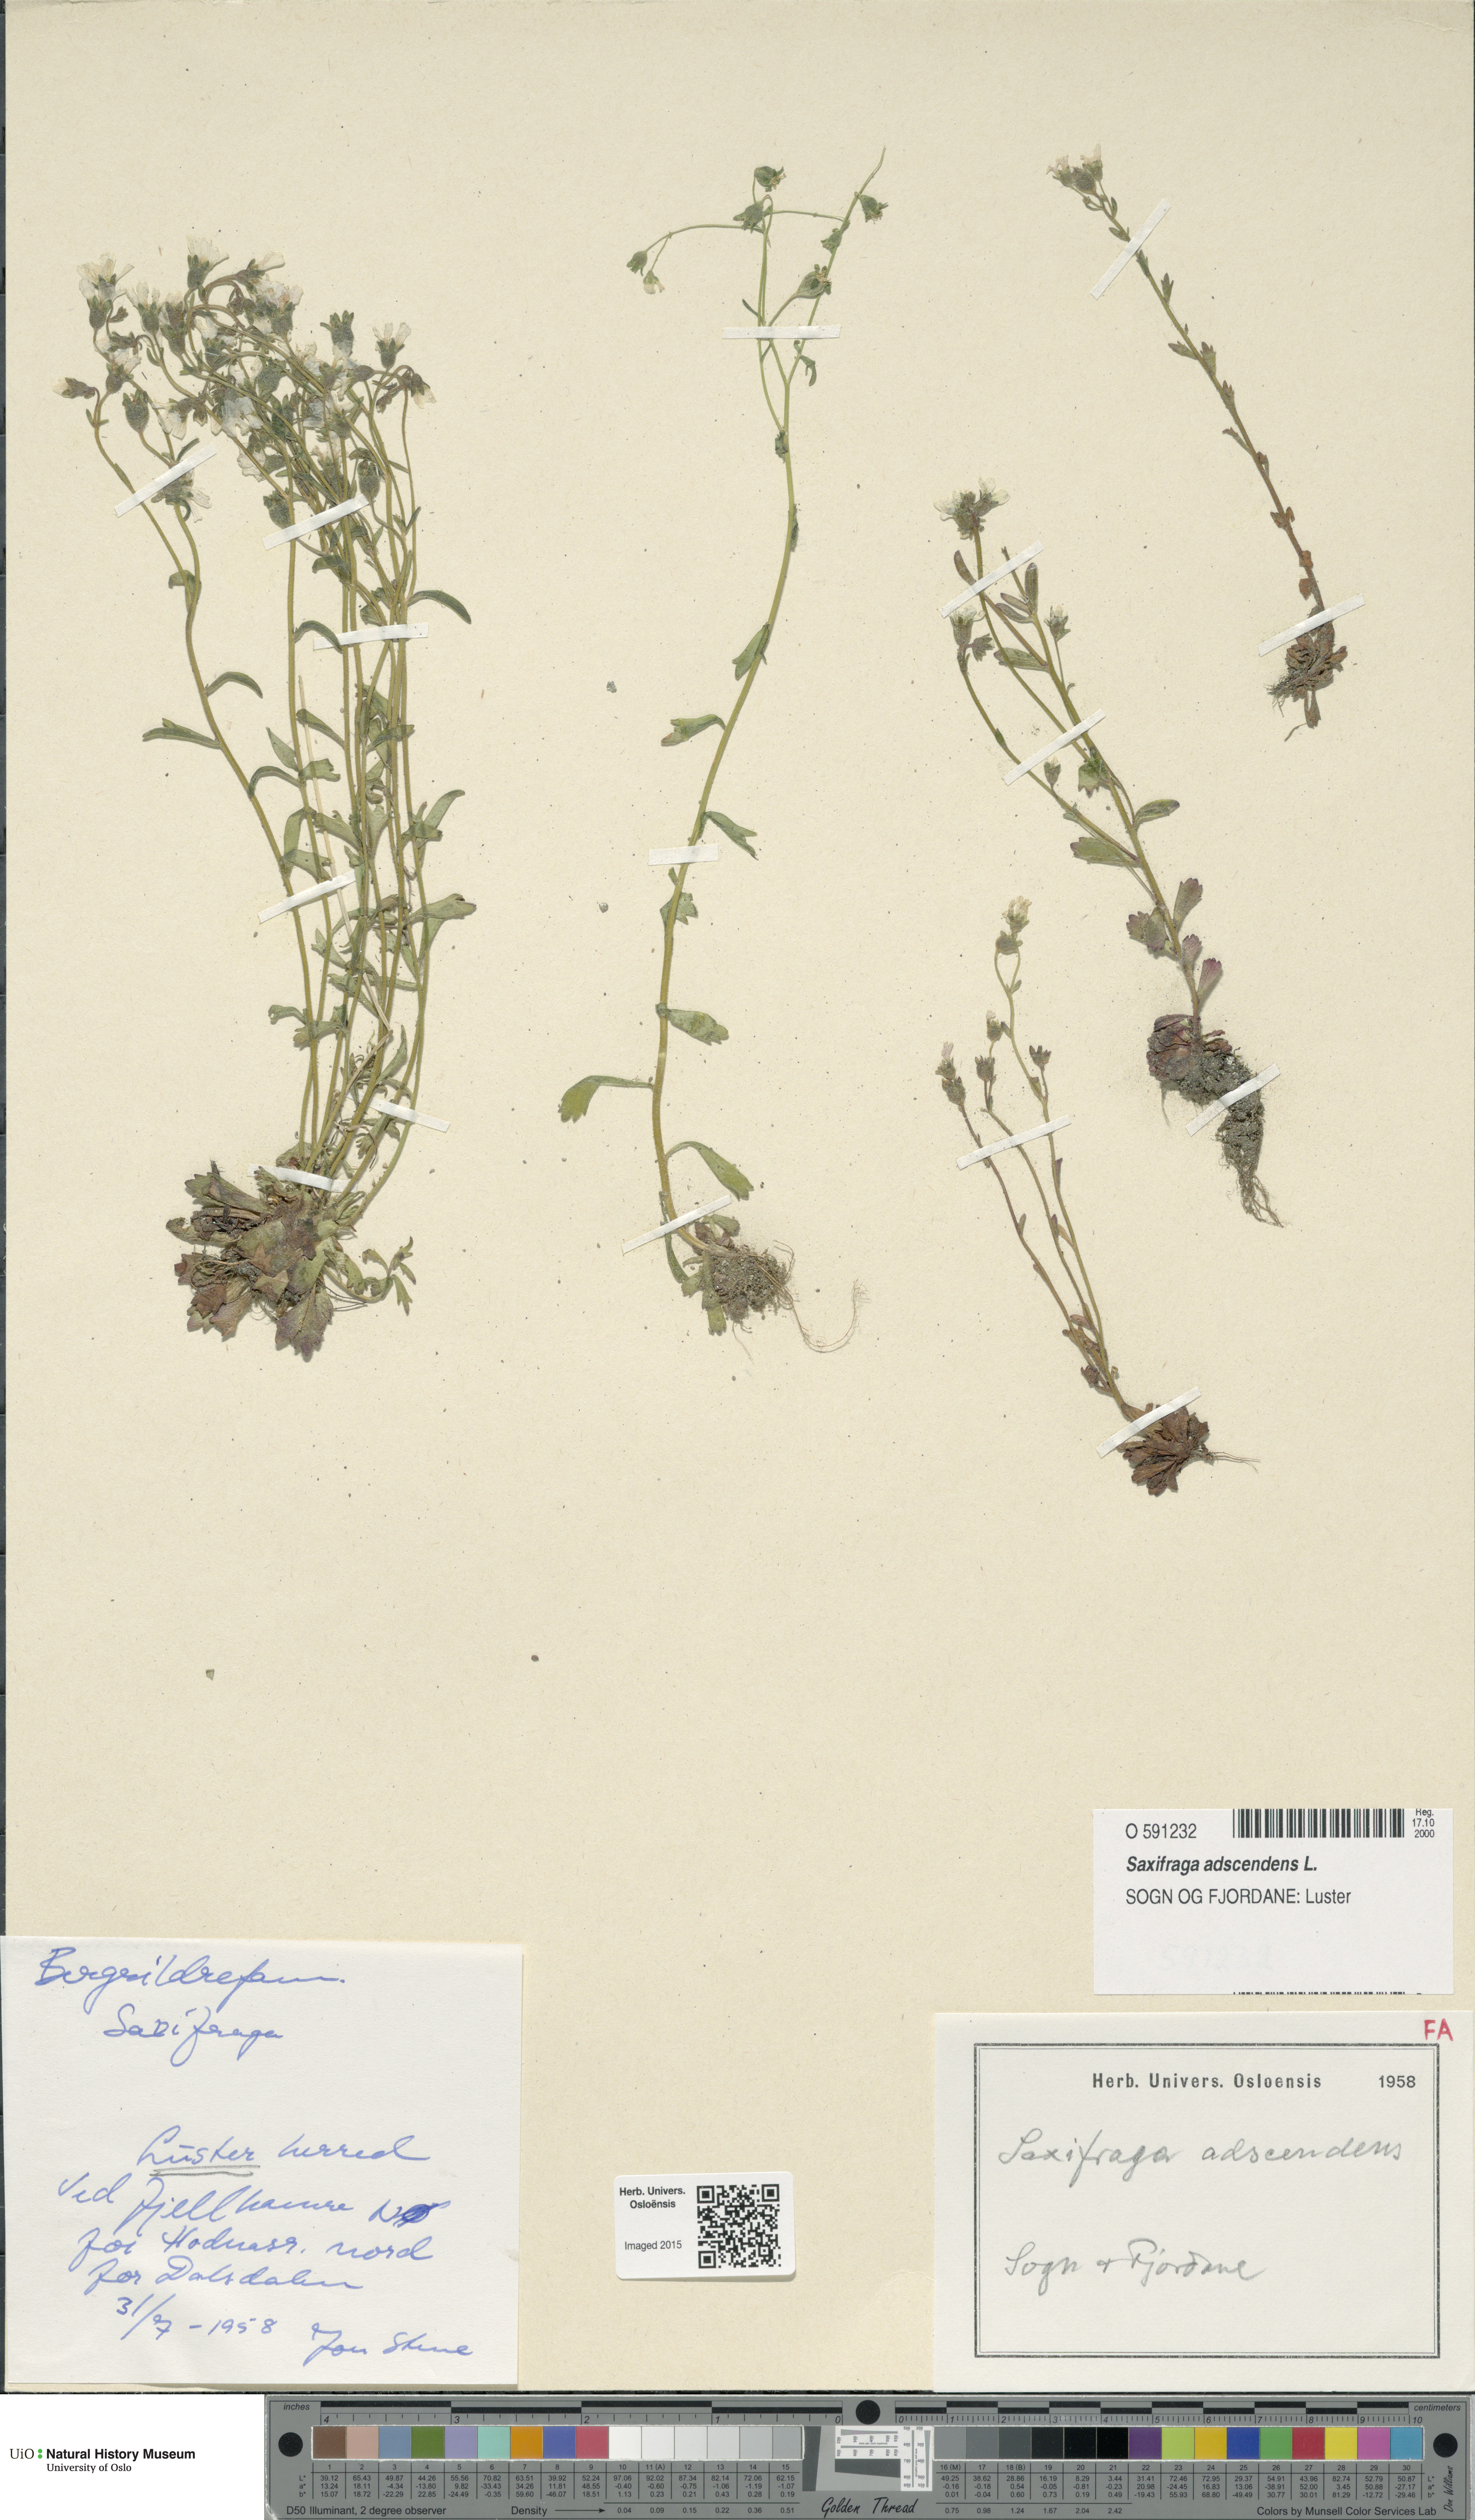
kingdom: Plantae
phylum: Tracheophyta
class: Magnoliopsida
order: Saxifragales
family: Saxifragaceae
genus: Saxifraga
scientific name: Saxifraga adscendens
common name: Ascending saxifrage
